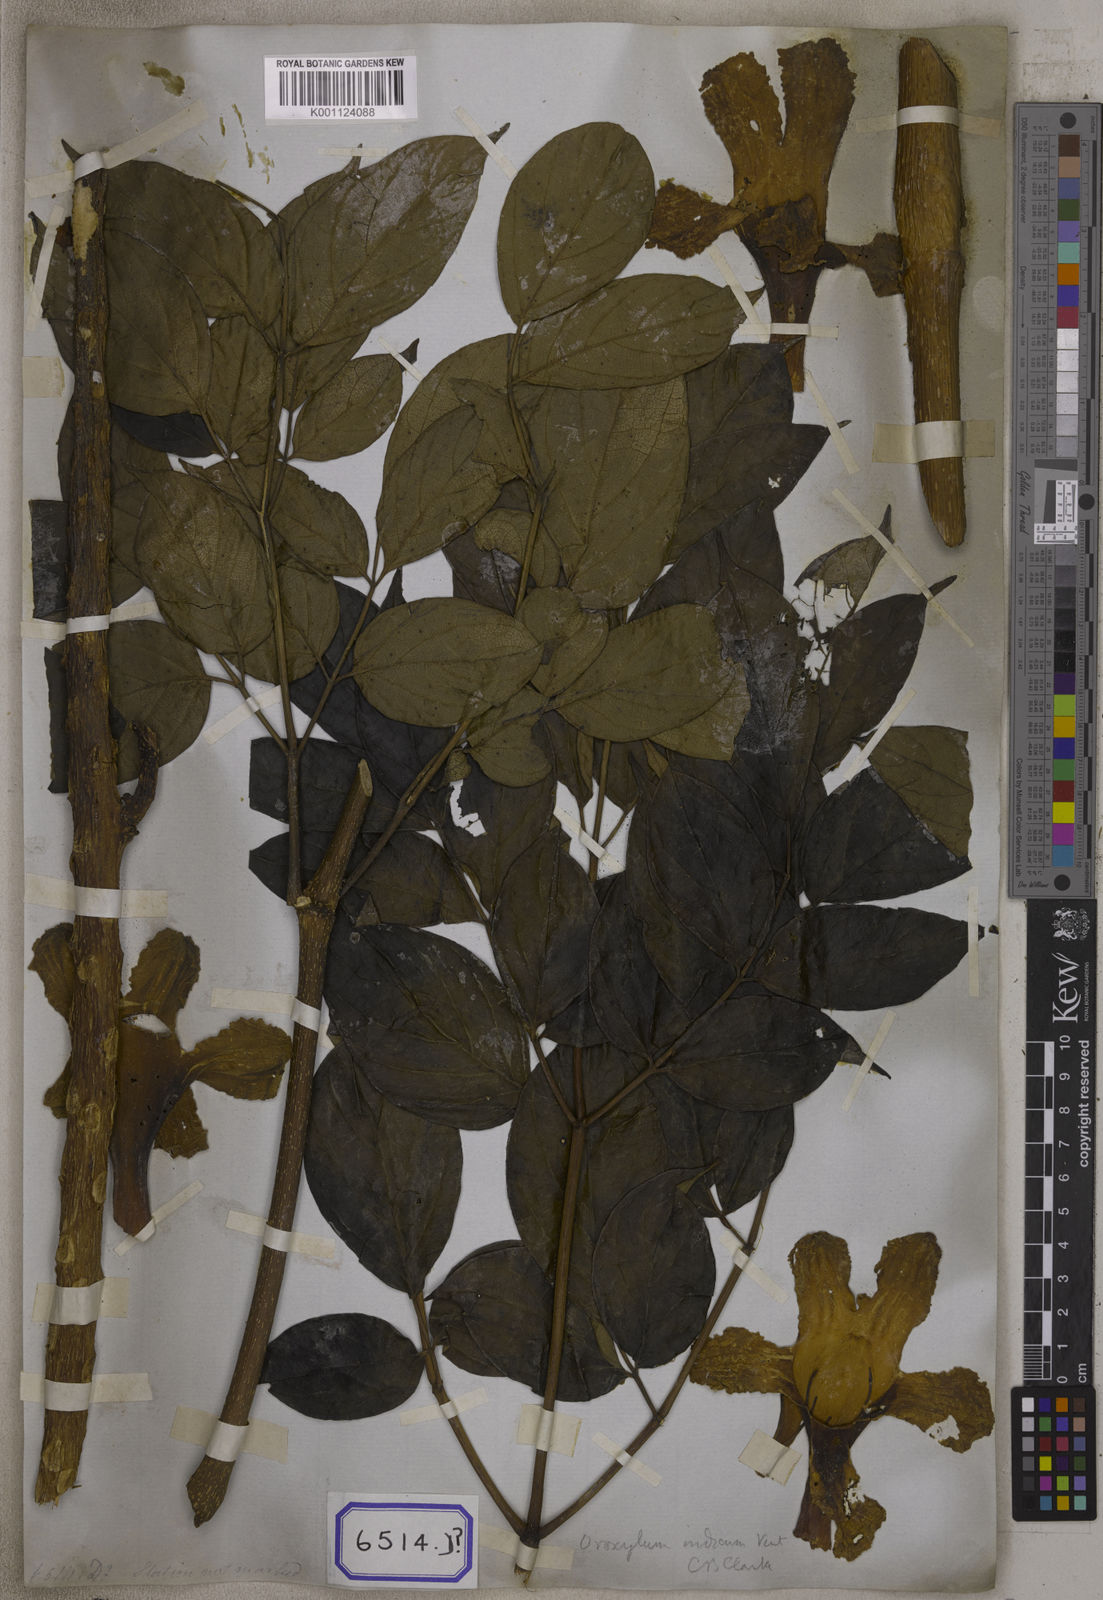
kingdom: Plantae
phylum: Tracheophyta
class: Magnoliopsida
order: Lamiales
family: Bignoniaceae
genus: Oroxylum
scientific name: Oroxylum indicum
